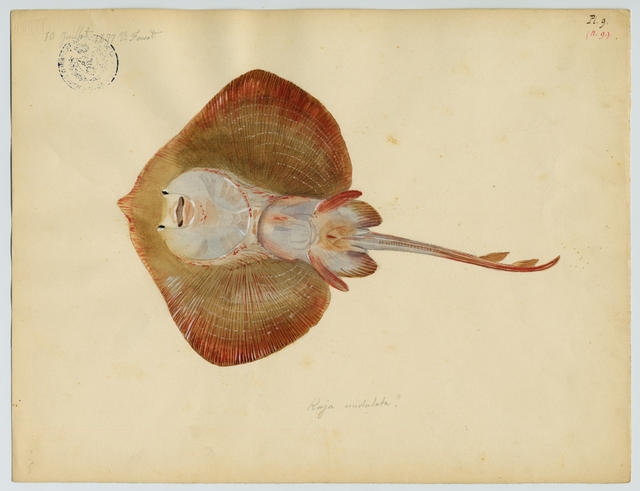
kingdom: Animalia
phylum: Chordata
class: Elasmobranchii
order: Rajiformes
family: Rajidae
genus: Raja
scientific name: Raja asterias
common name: Starry ray
